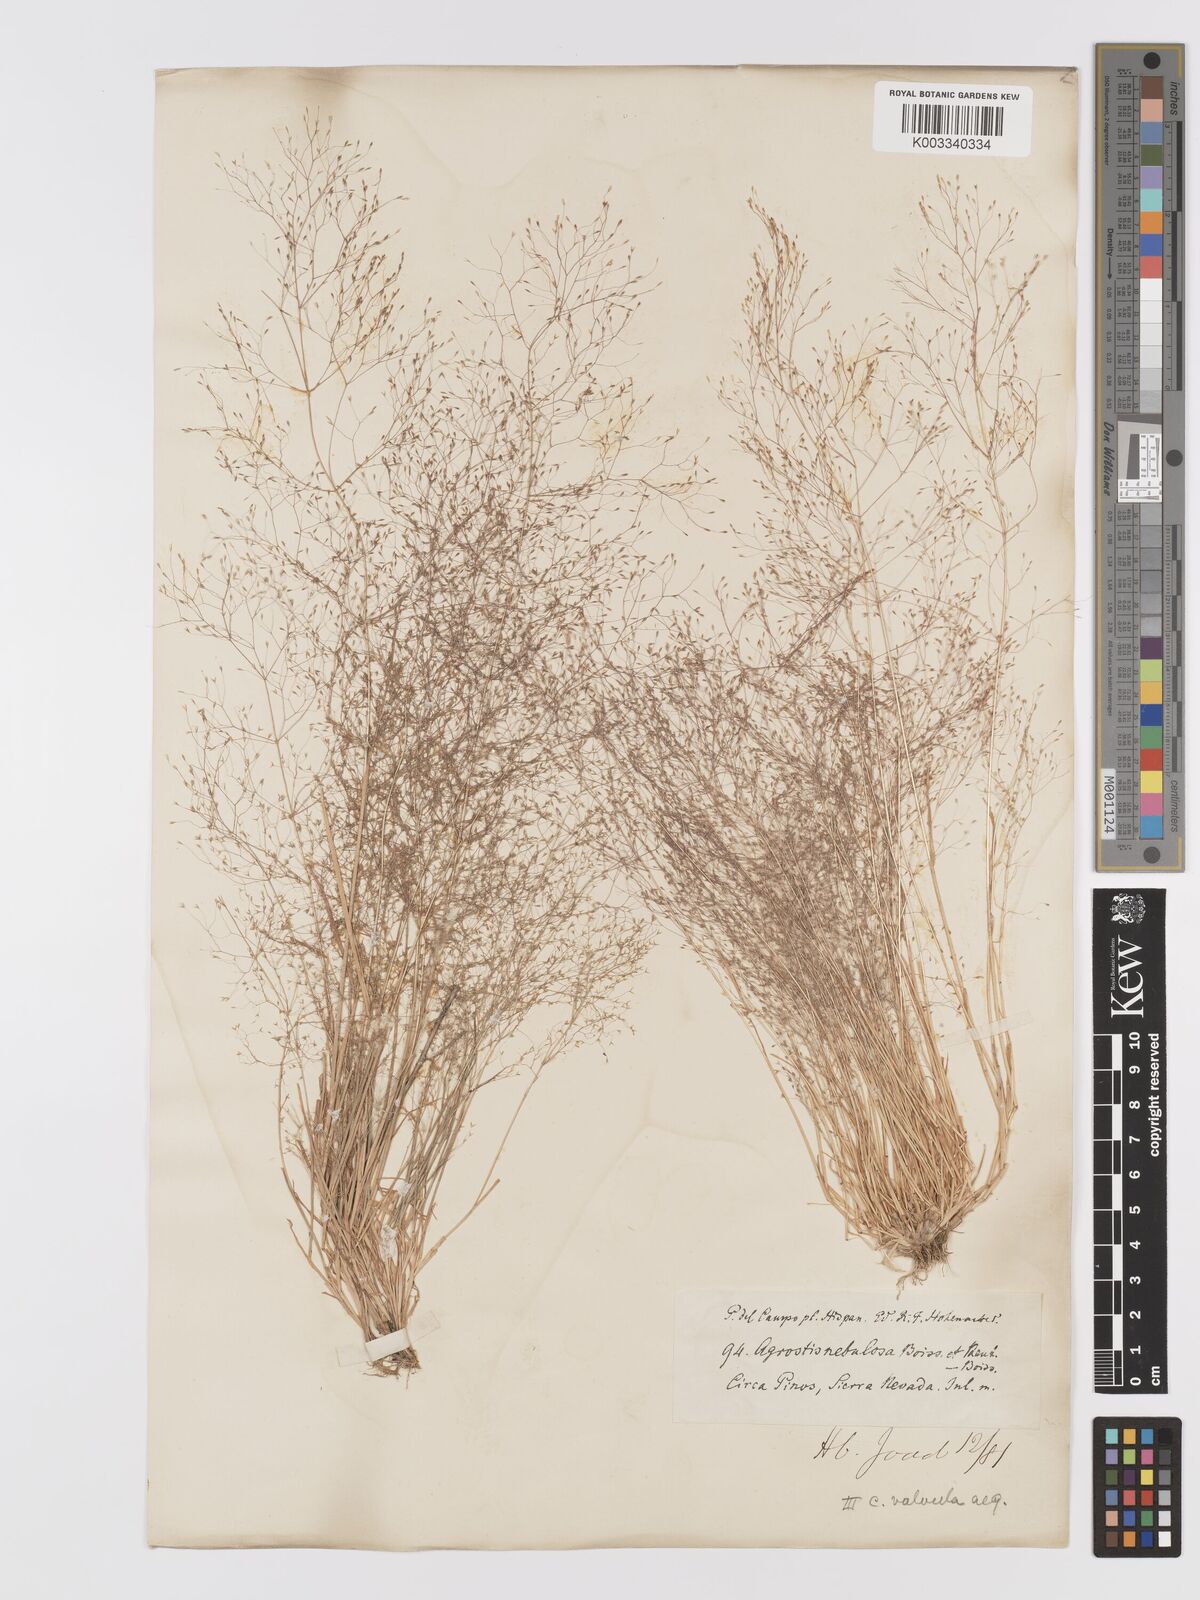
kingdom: Plantae
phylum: Tracheophyta
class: Liliopsida
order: Poales
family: Poaceae
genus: Agrostis
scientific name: Agrostis nebulosa
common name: Cloud grass
